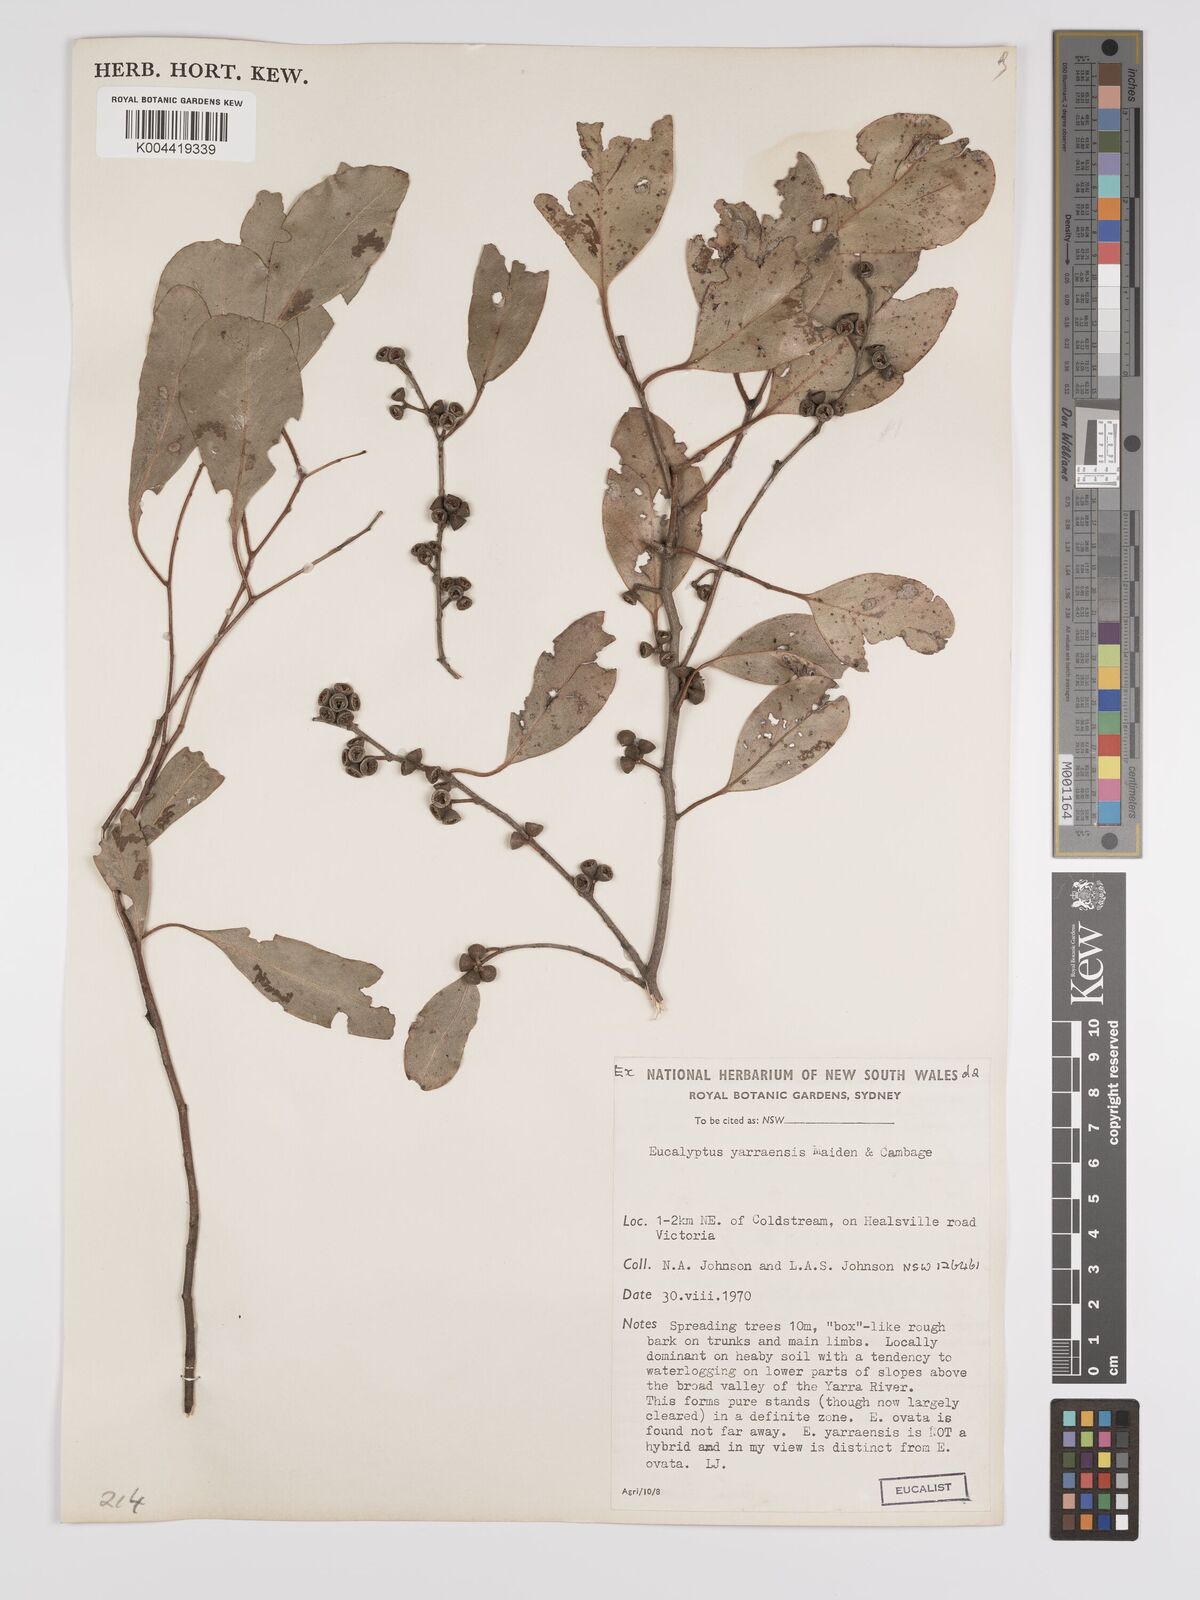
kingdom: Plantae
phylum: Tracheophyta
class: Magnoliopsida
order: Myrtales
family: Myrtaceae
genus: Eucalyptus
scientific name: Eucalyptus yarraensis
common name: Yarra gum
